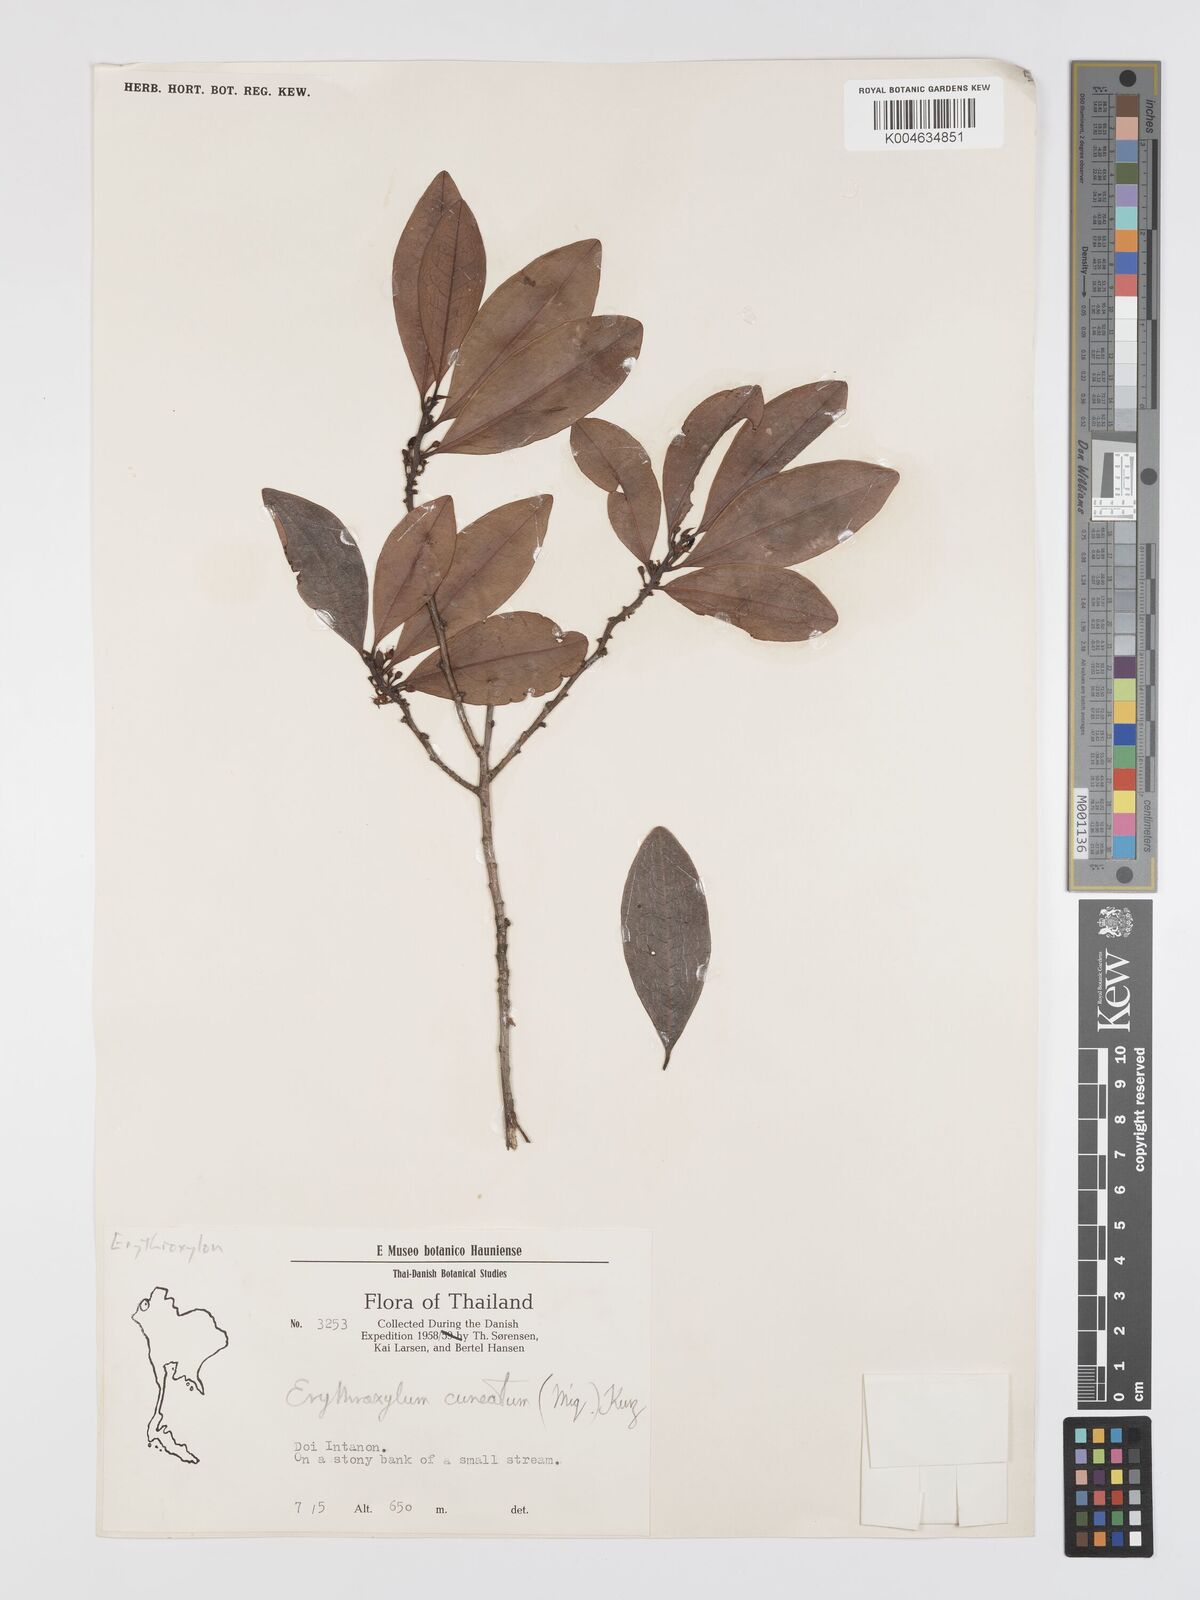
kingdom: Plantae
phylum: Tracheophyta
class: Magnoliopsida
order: Malpighiales
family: Erythroxylaceae
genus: Erythroxylum
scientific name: Erythroxylum cuneatum
